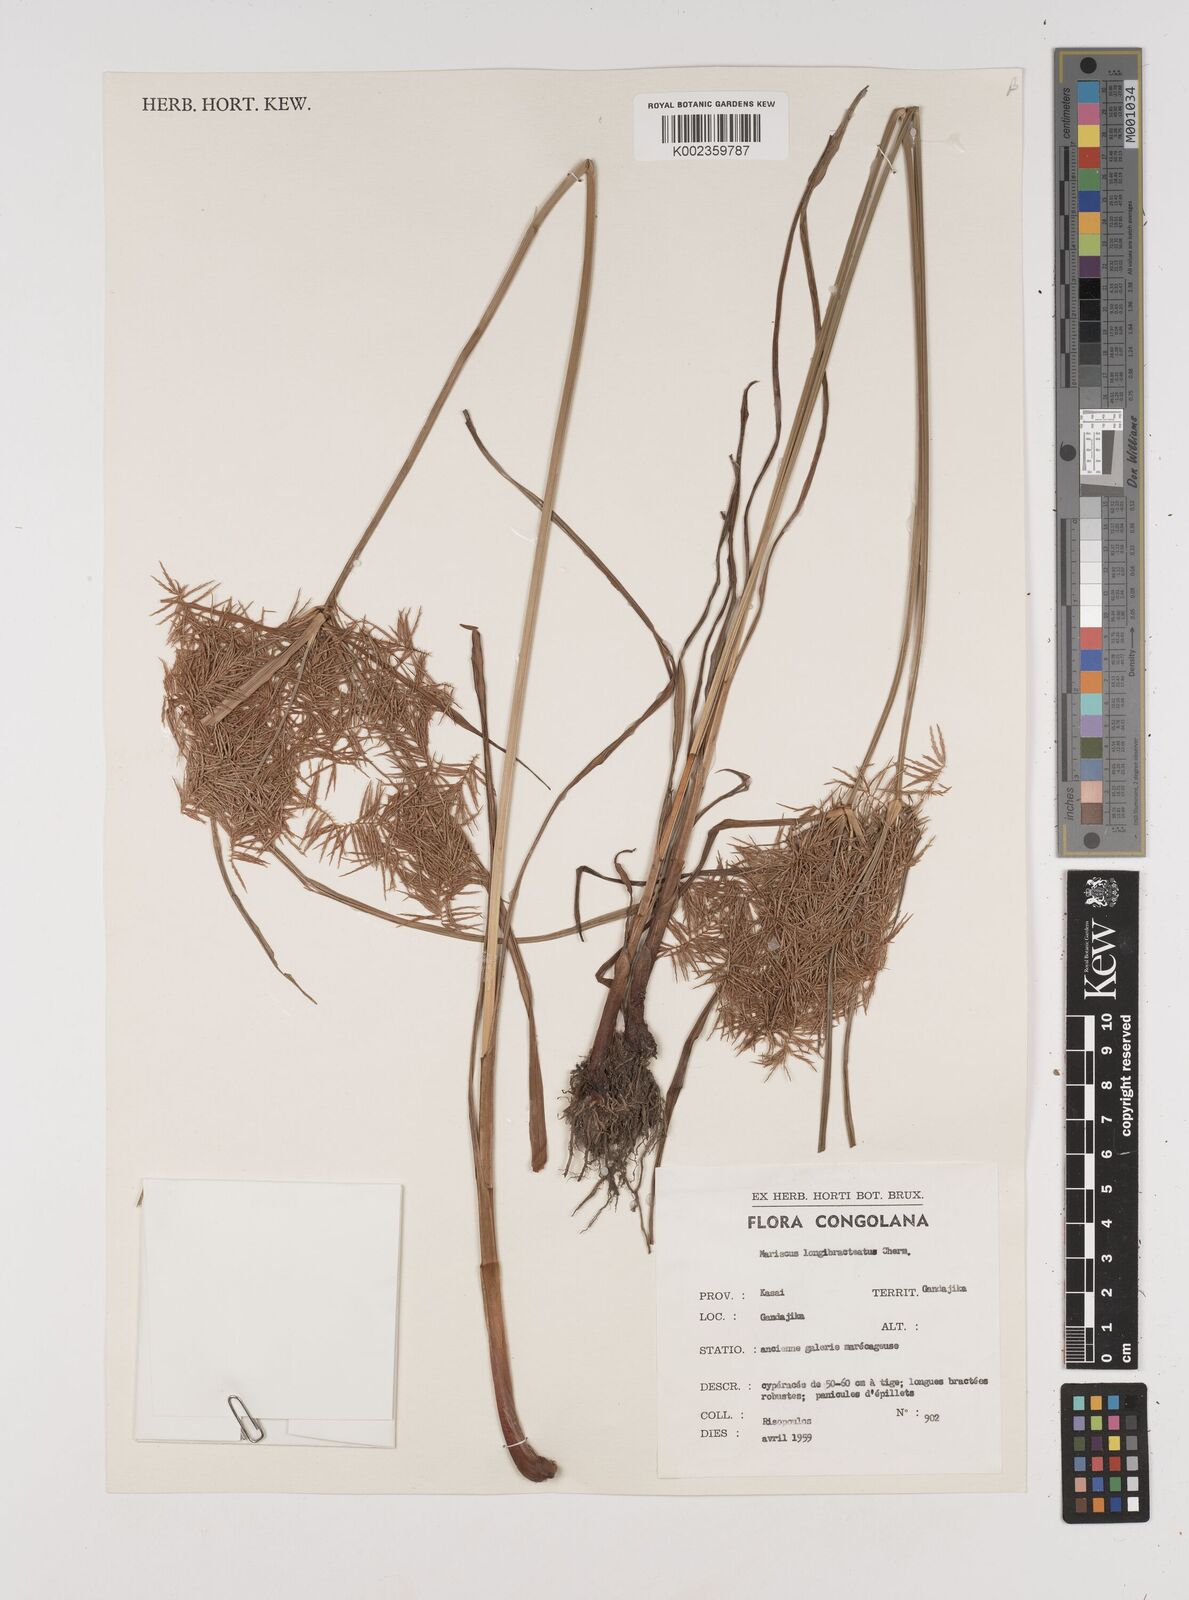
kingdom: Plantae
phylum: Tracheophyta
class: Liliopsida
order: Poales
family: Cyperaceae
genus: Cyperus
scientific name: Cyperus distans
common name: Slender cyperus
